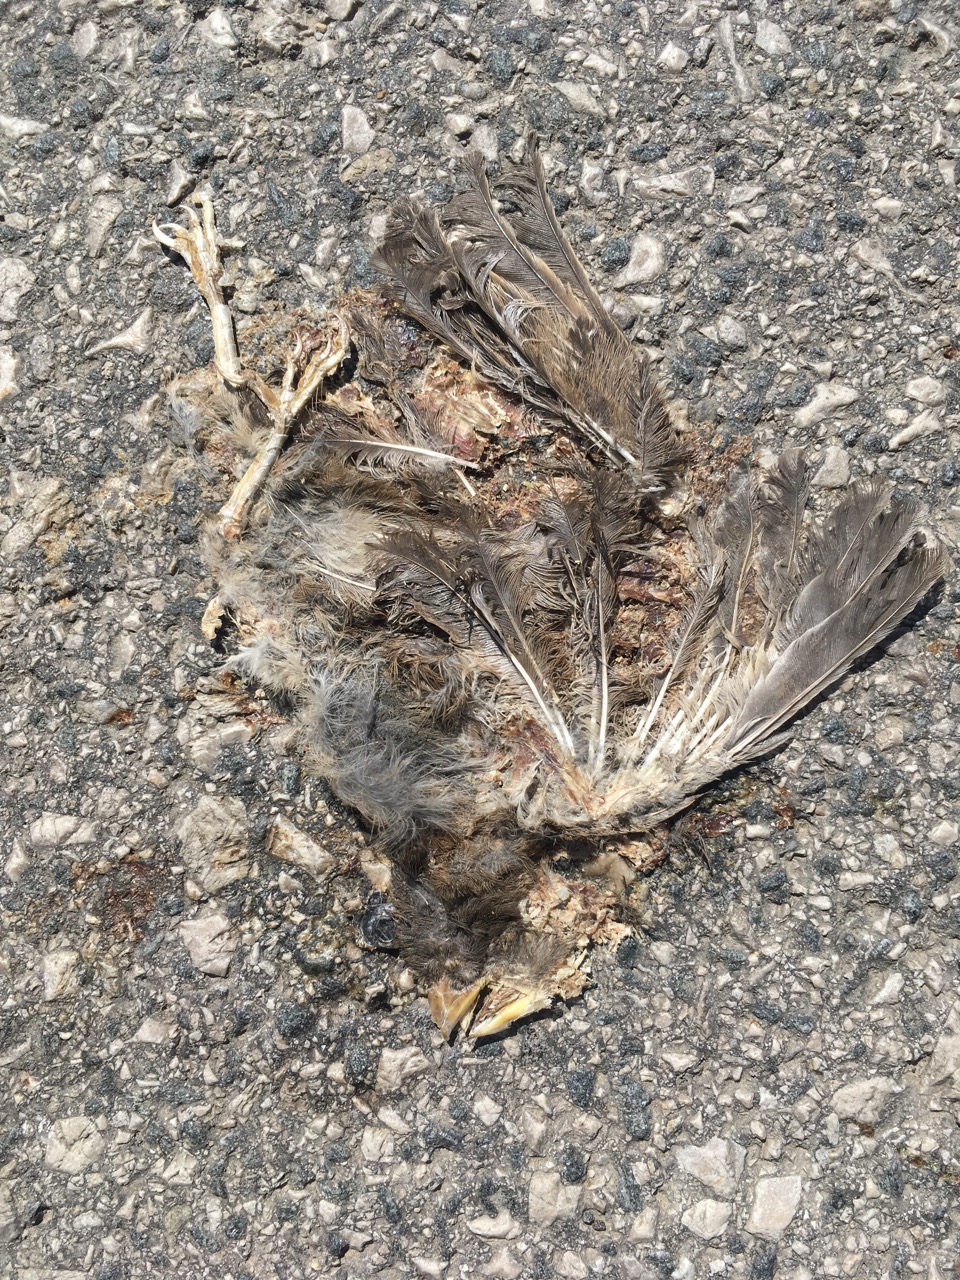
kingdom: Animalia
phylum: Chordata
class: Aves
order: Passeriformes
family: Passeridae
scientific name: Passeridae
